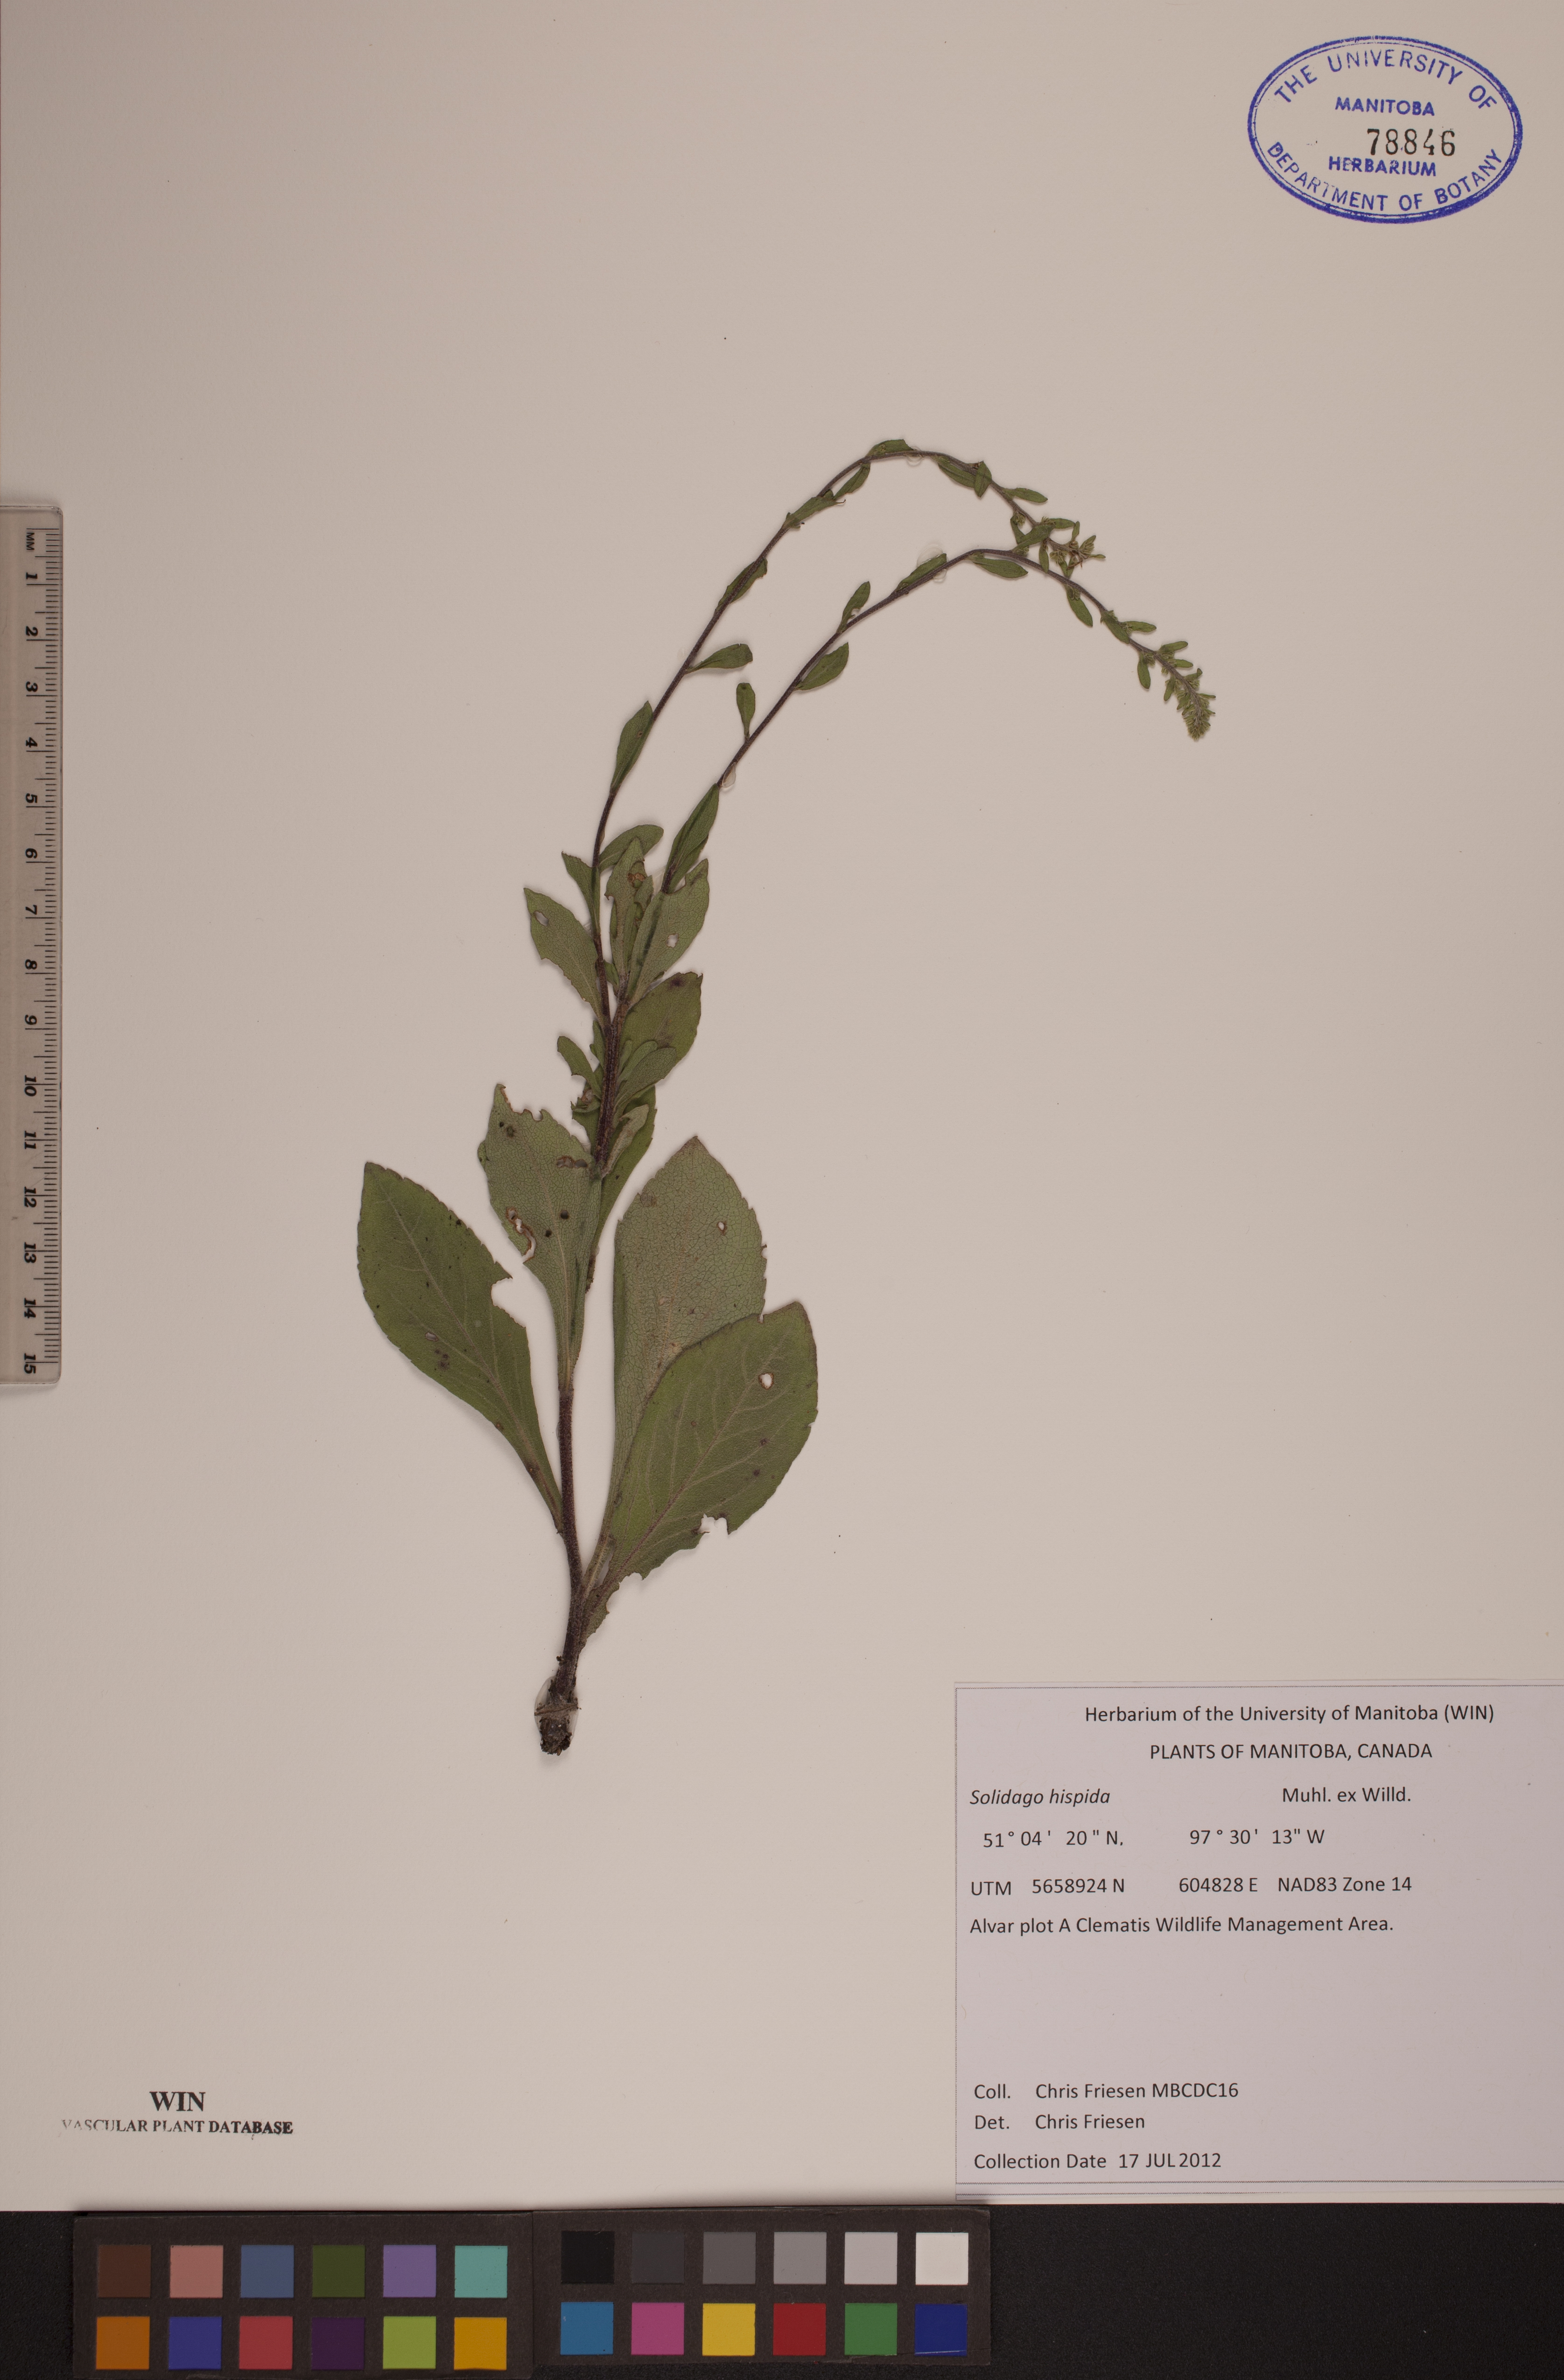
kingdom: Plantae
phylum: Tracheophyta
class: Magnoliopsida
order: Asterales
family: Asteraceae
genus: Solidago
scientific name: Solidago hispida
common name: Hairy goldenrod
